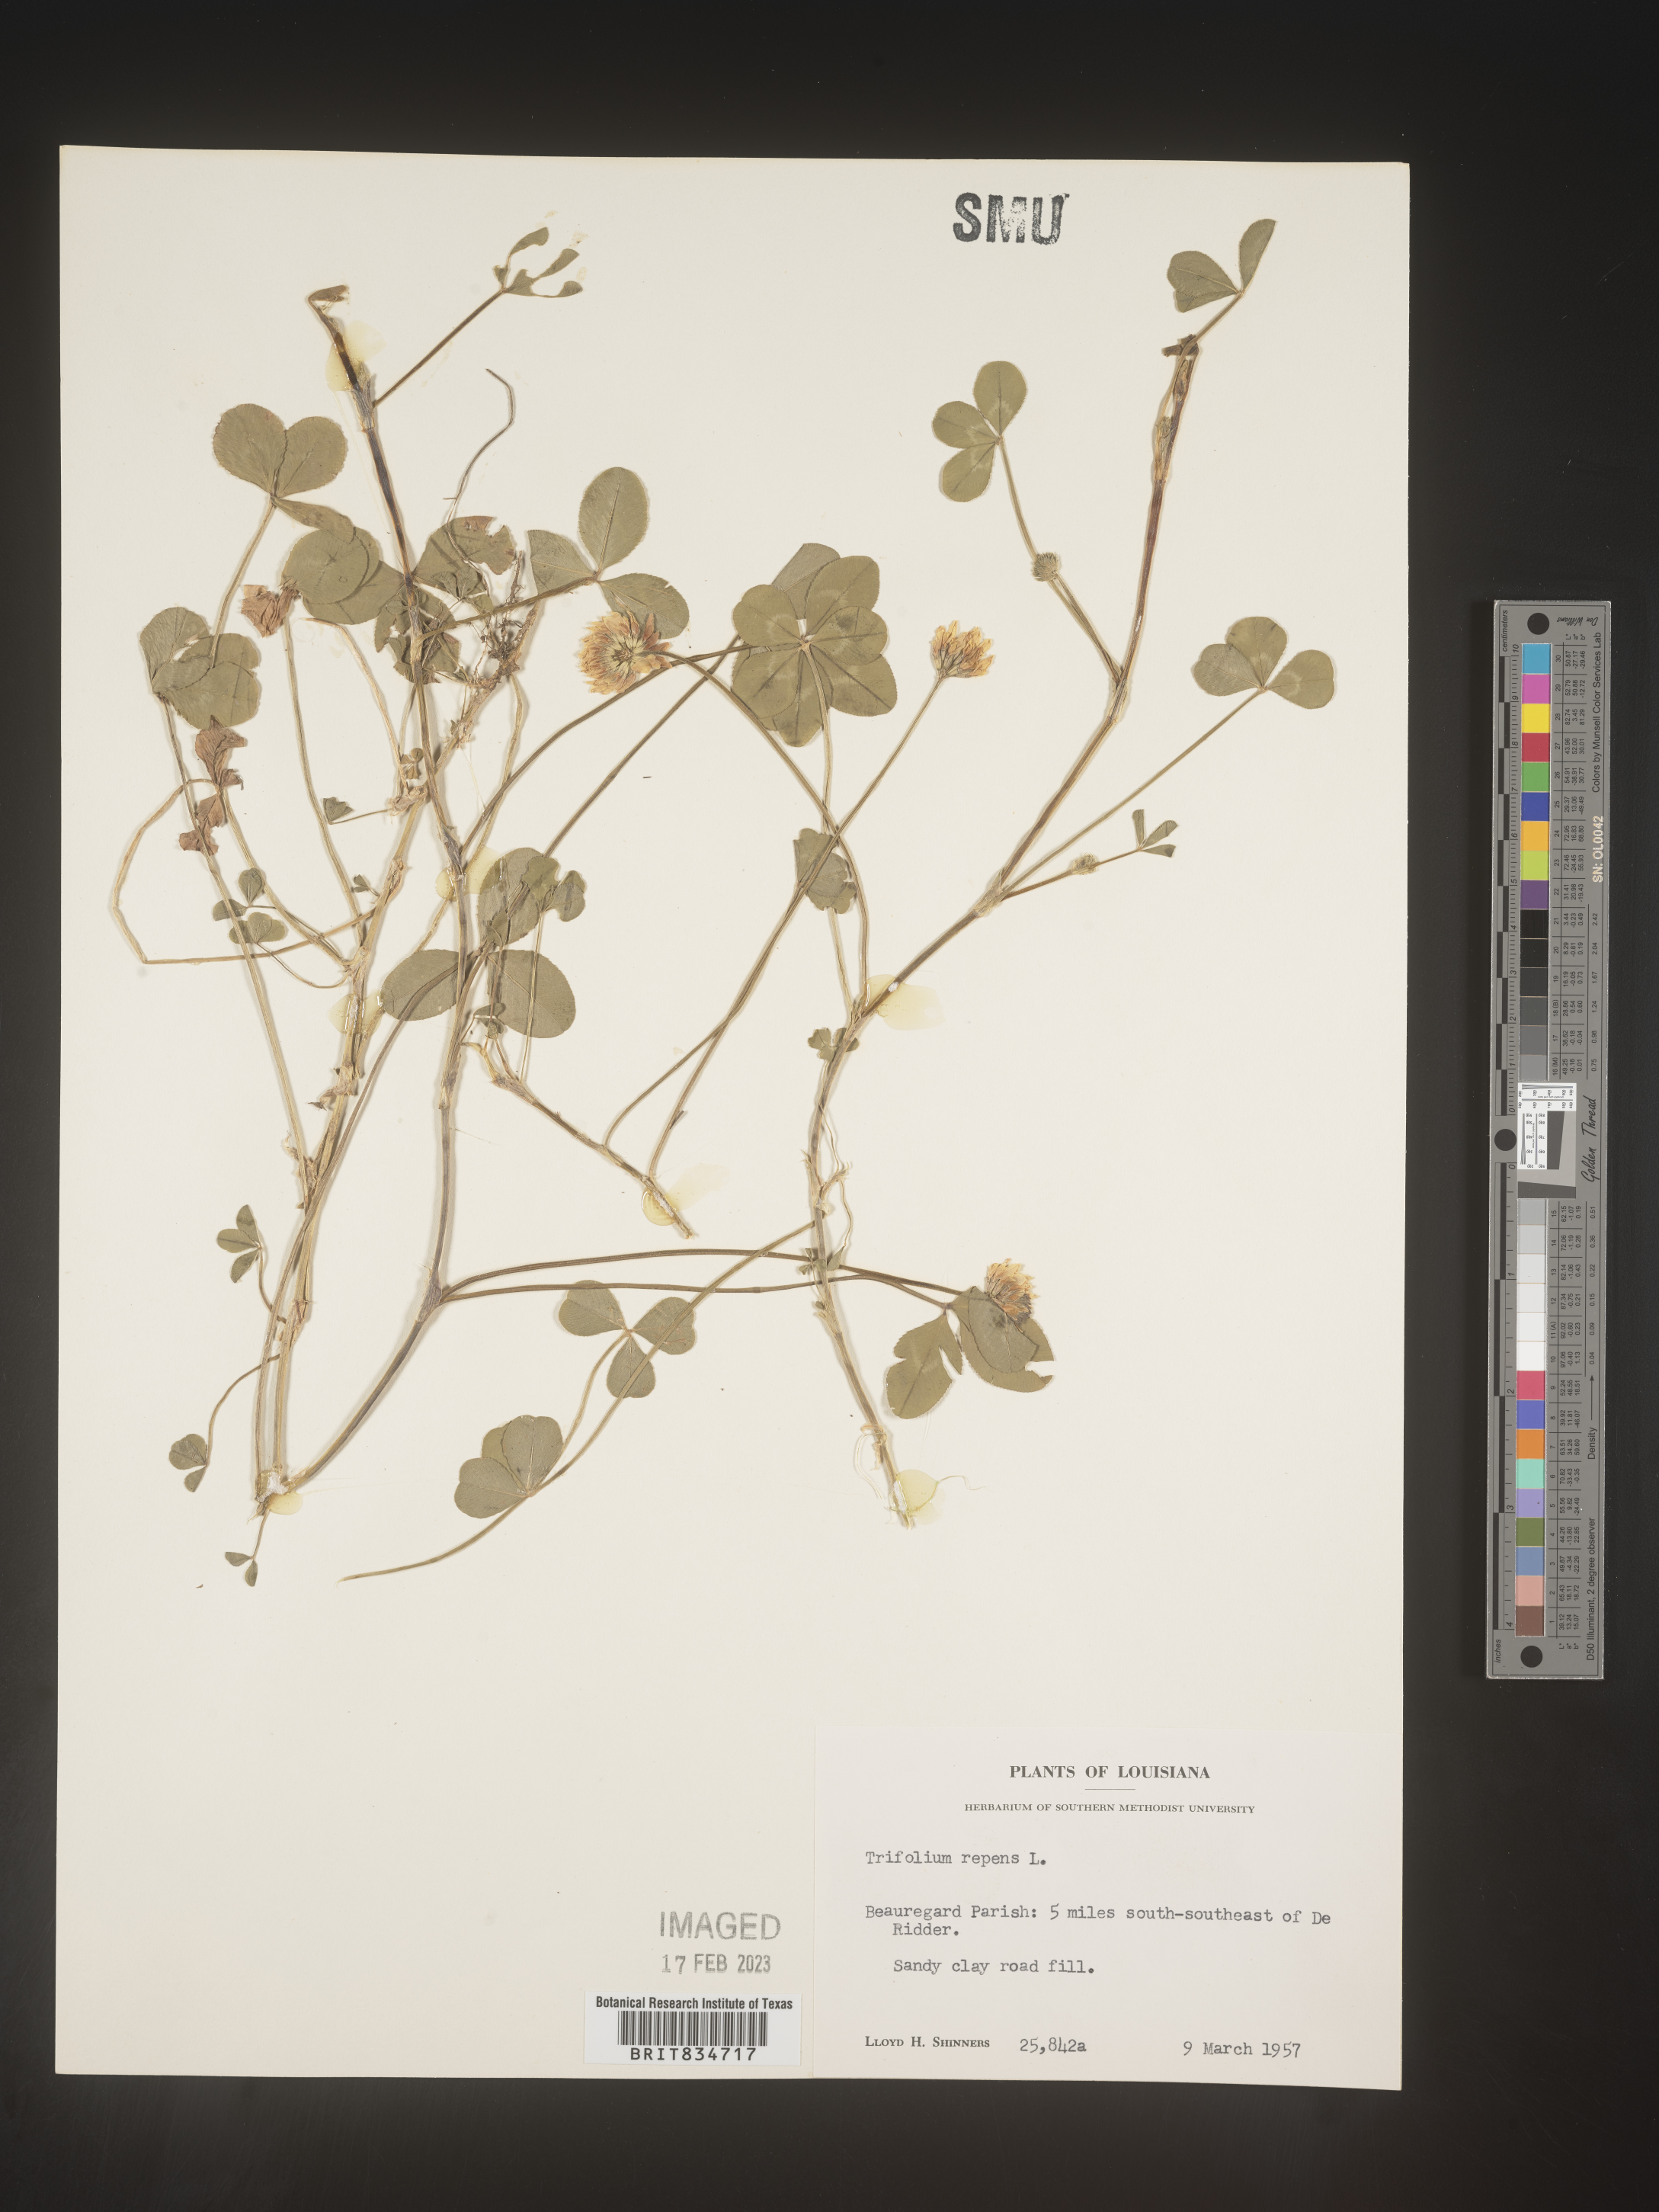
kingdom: Plantae
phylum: Tracheophyta
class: Magnoliopsida
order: Fabales
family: Fabaceae
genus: Trifolium
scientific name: Trifolium repens
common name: White clover
